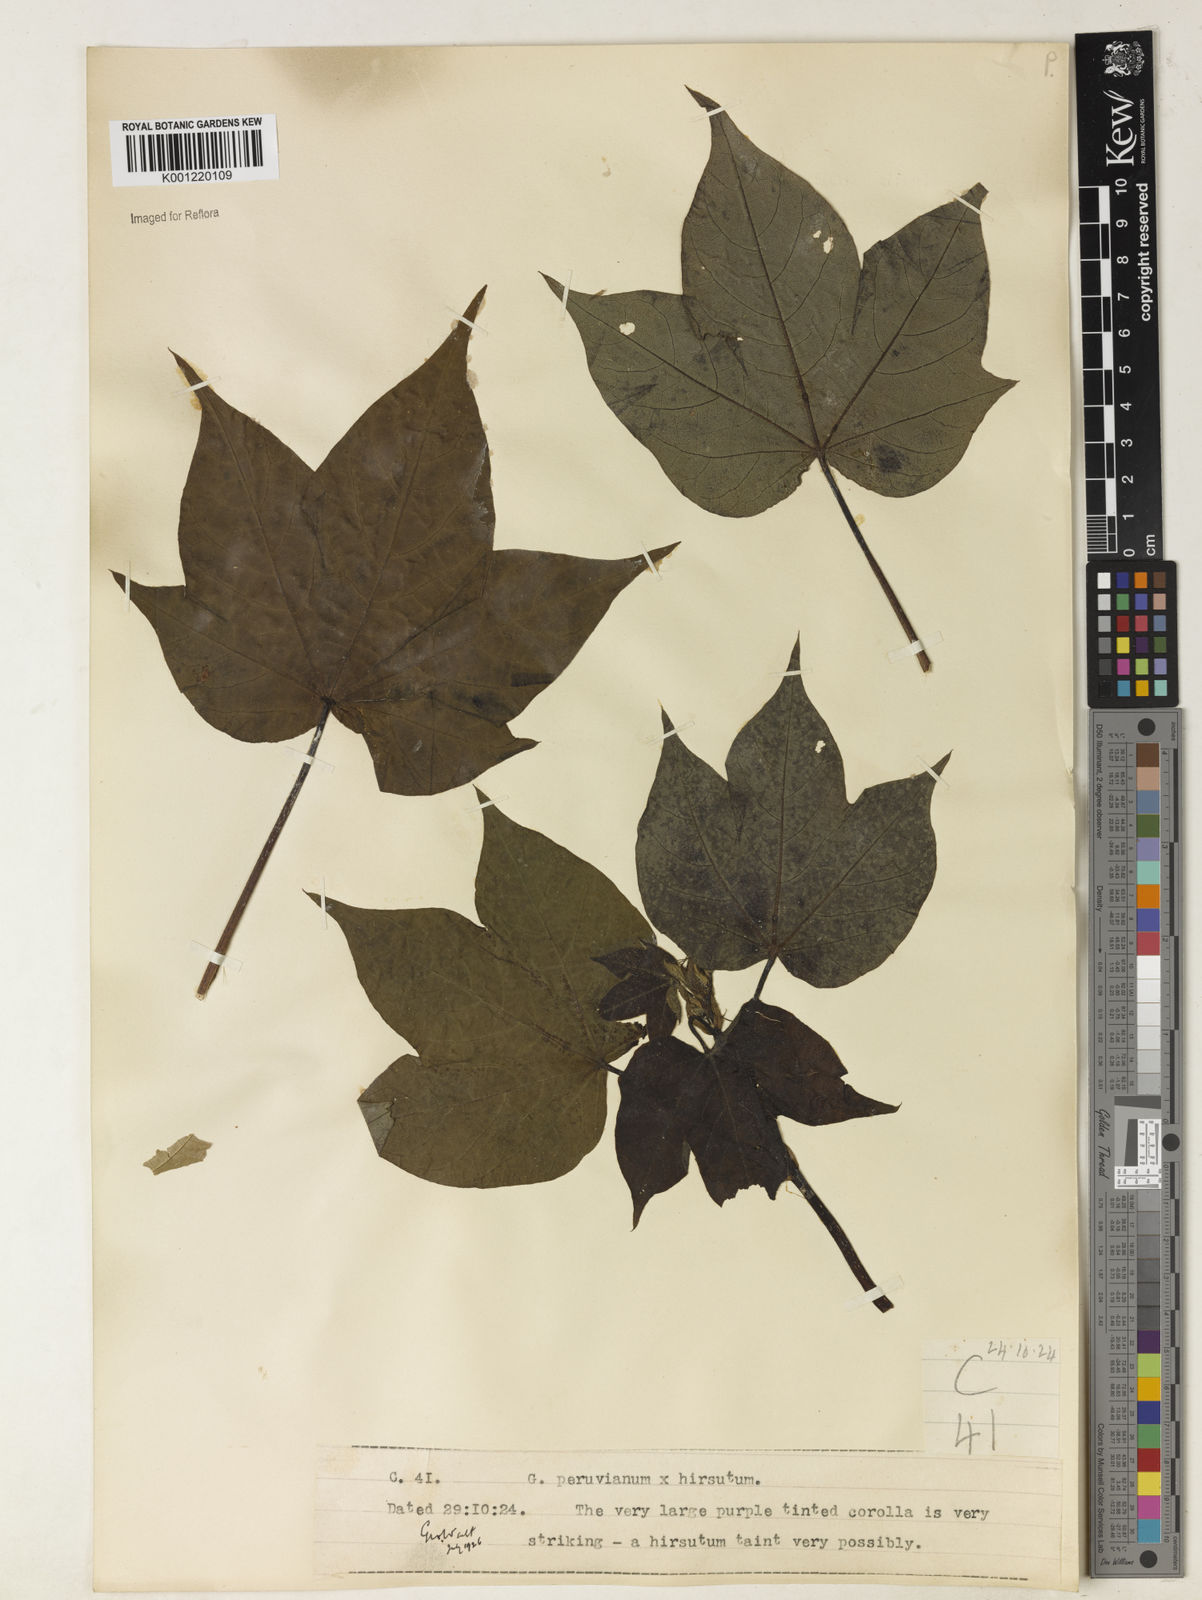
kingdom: Plantae
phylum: Tracheophyta
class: Magnoliopsida
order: Malvales
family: Malvaceae
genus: Gossypium
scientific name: Gossypium
